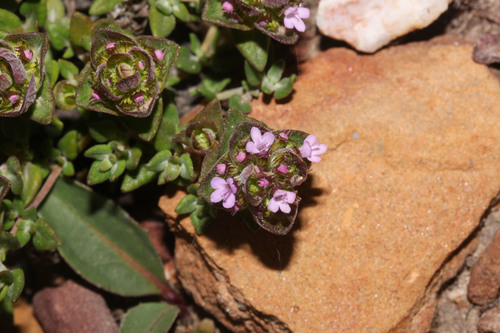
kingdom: Plantae
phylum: Tracheophyta
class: Magnoliopsida
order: Lamiales
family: Lamiaceae
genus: Thymus
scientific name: Thymus camphoratus
